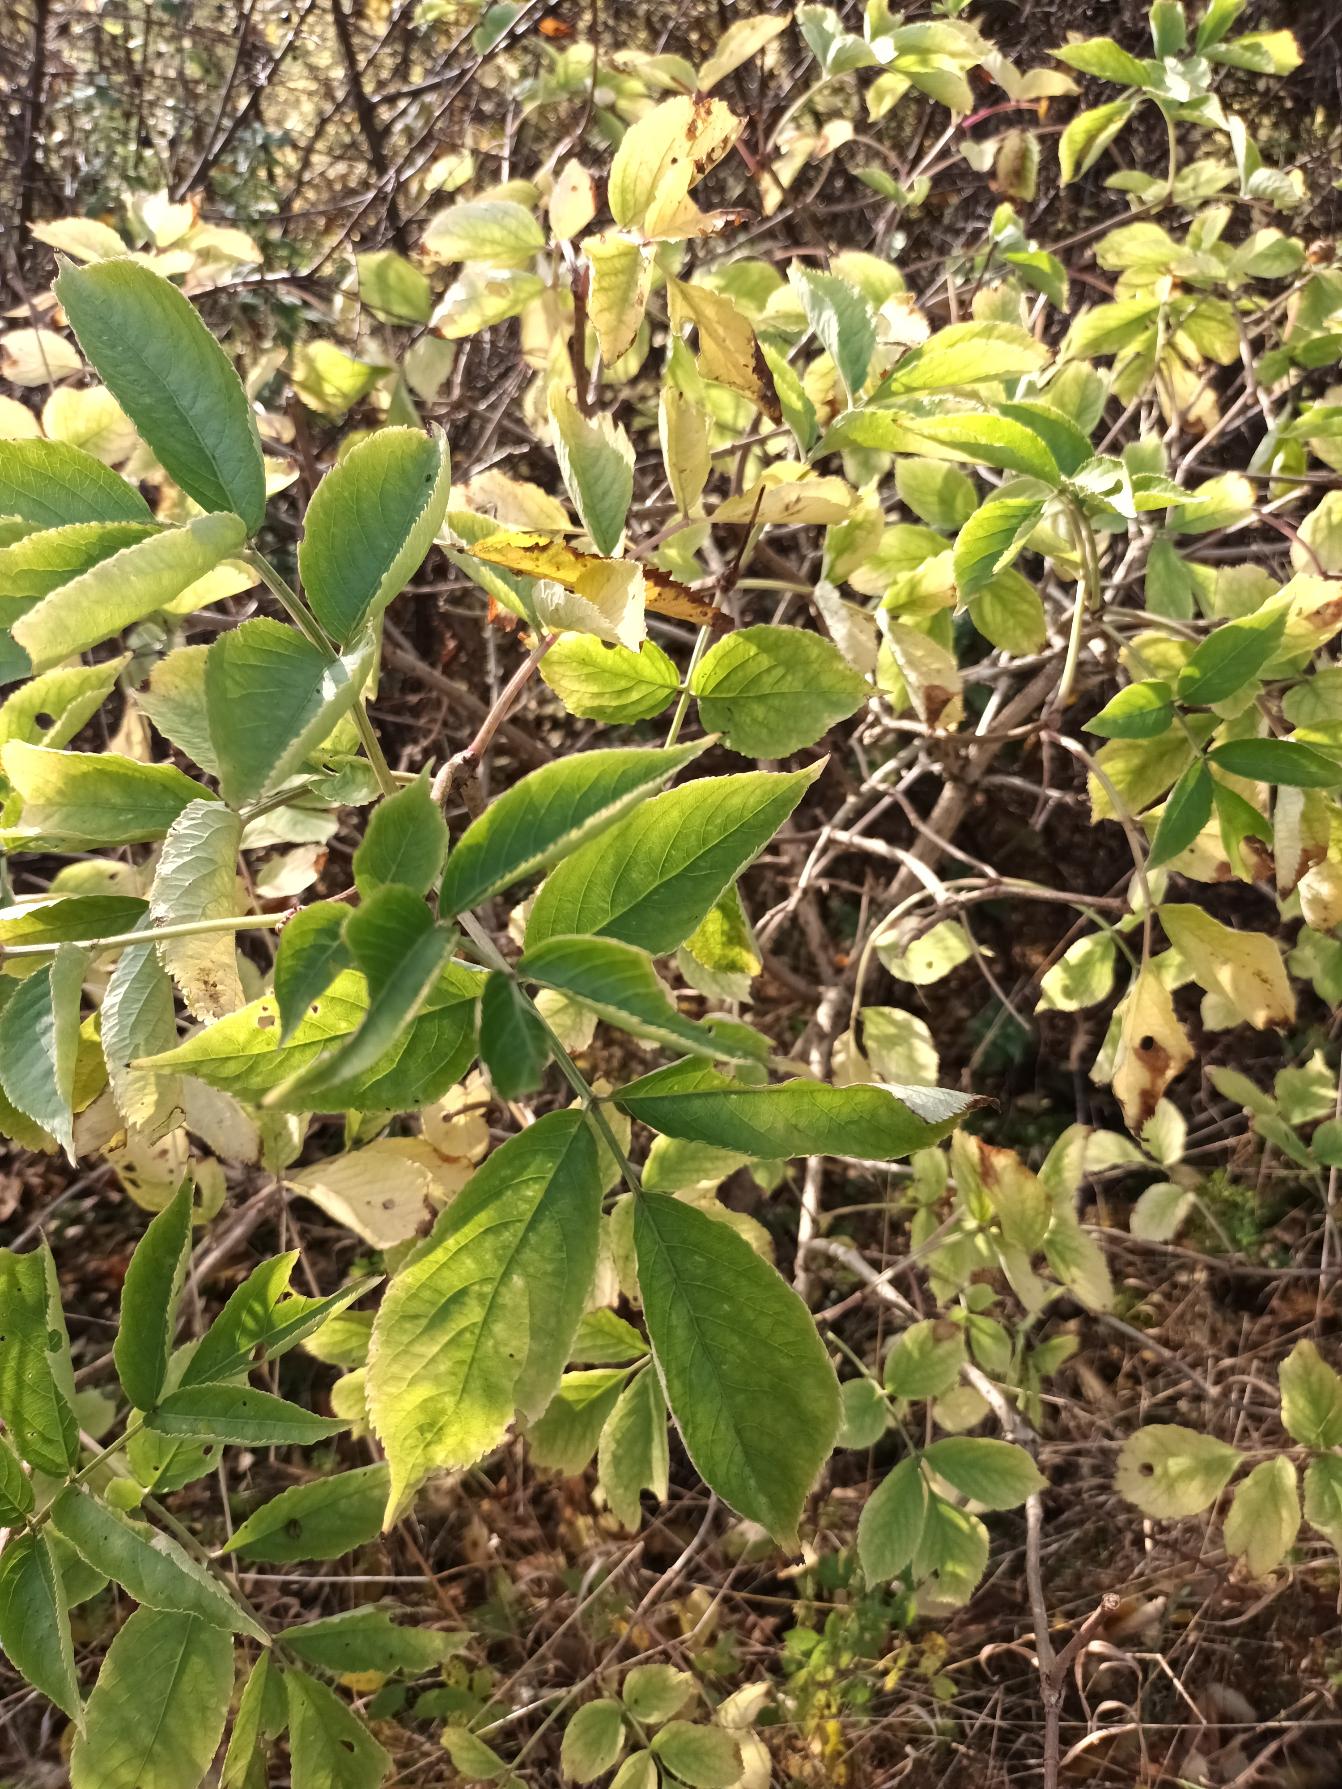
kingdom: Plantae
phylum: Tracheophyta
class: Magnoliopsida
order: Dipsacales
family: Viburnaceae
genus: Sambucus
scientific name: Sambucus nigra
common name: Almindelig hyld
